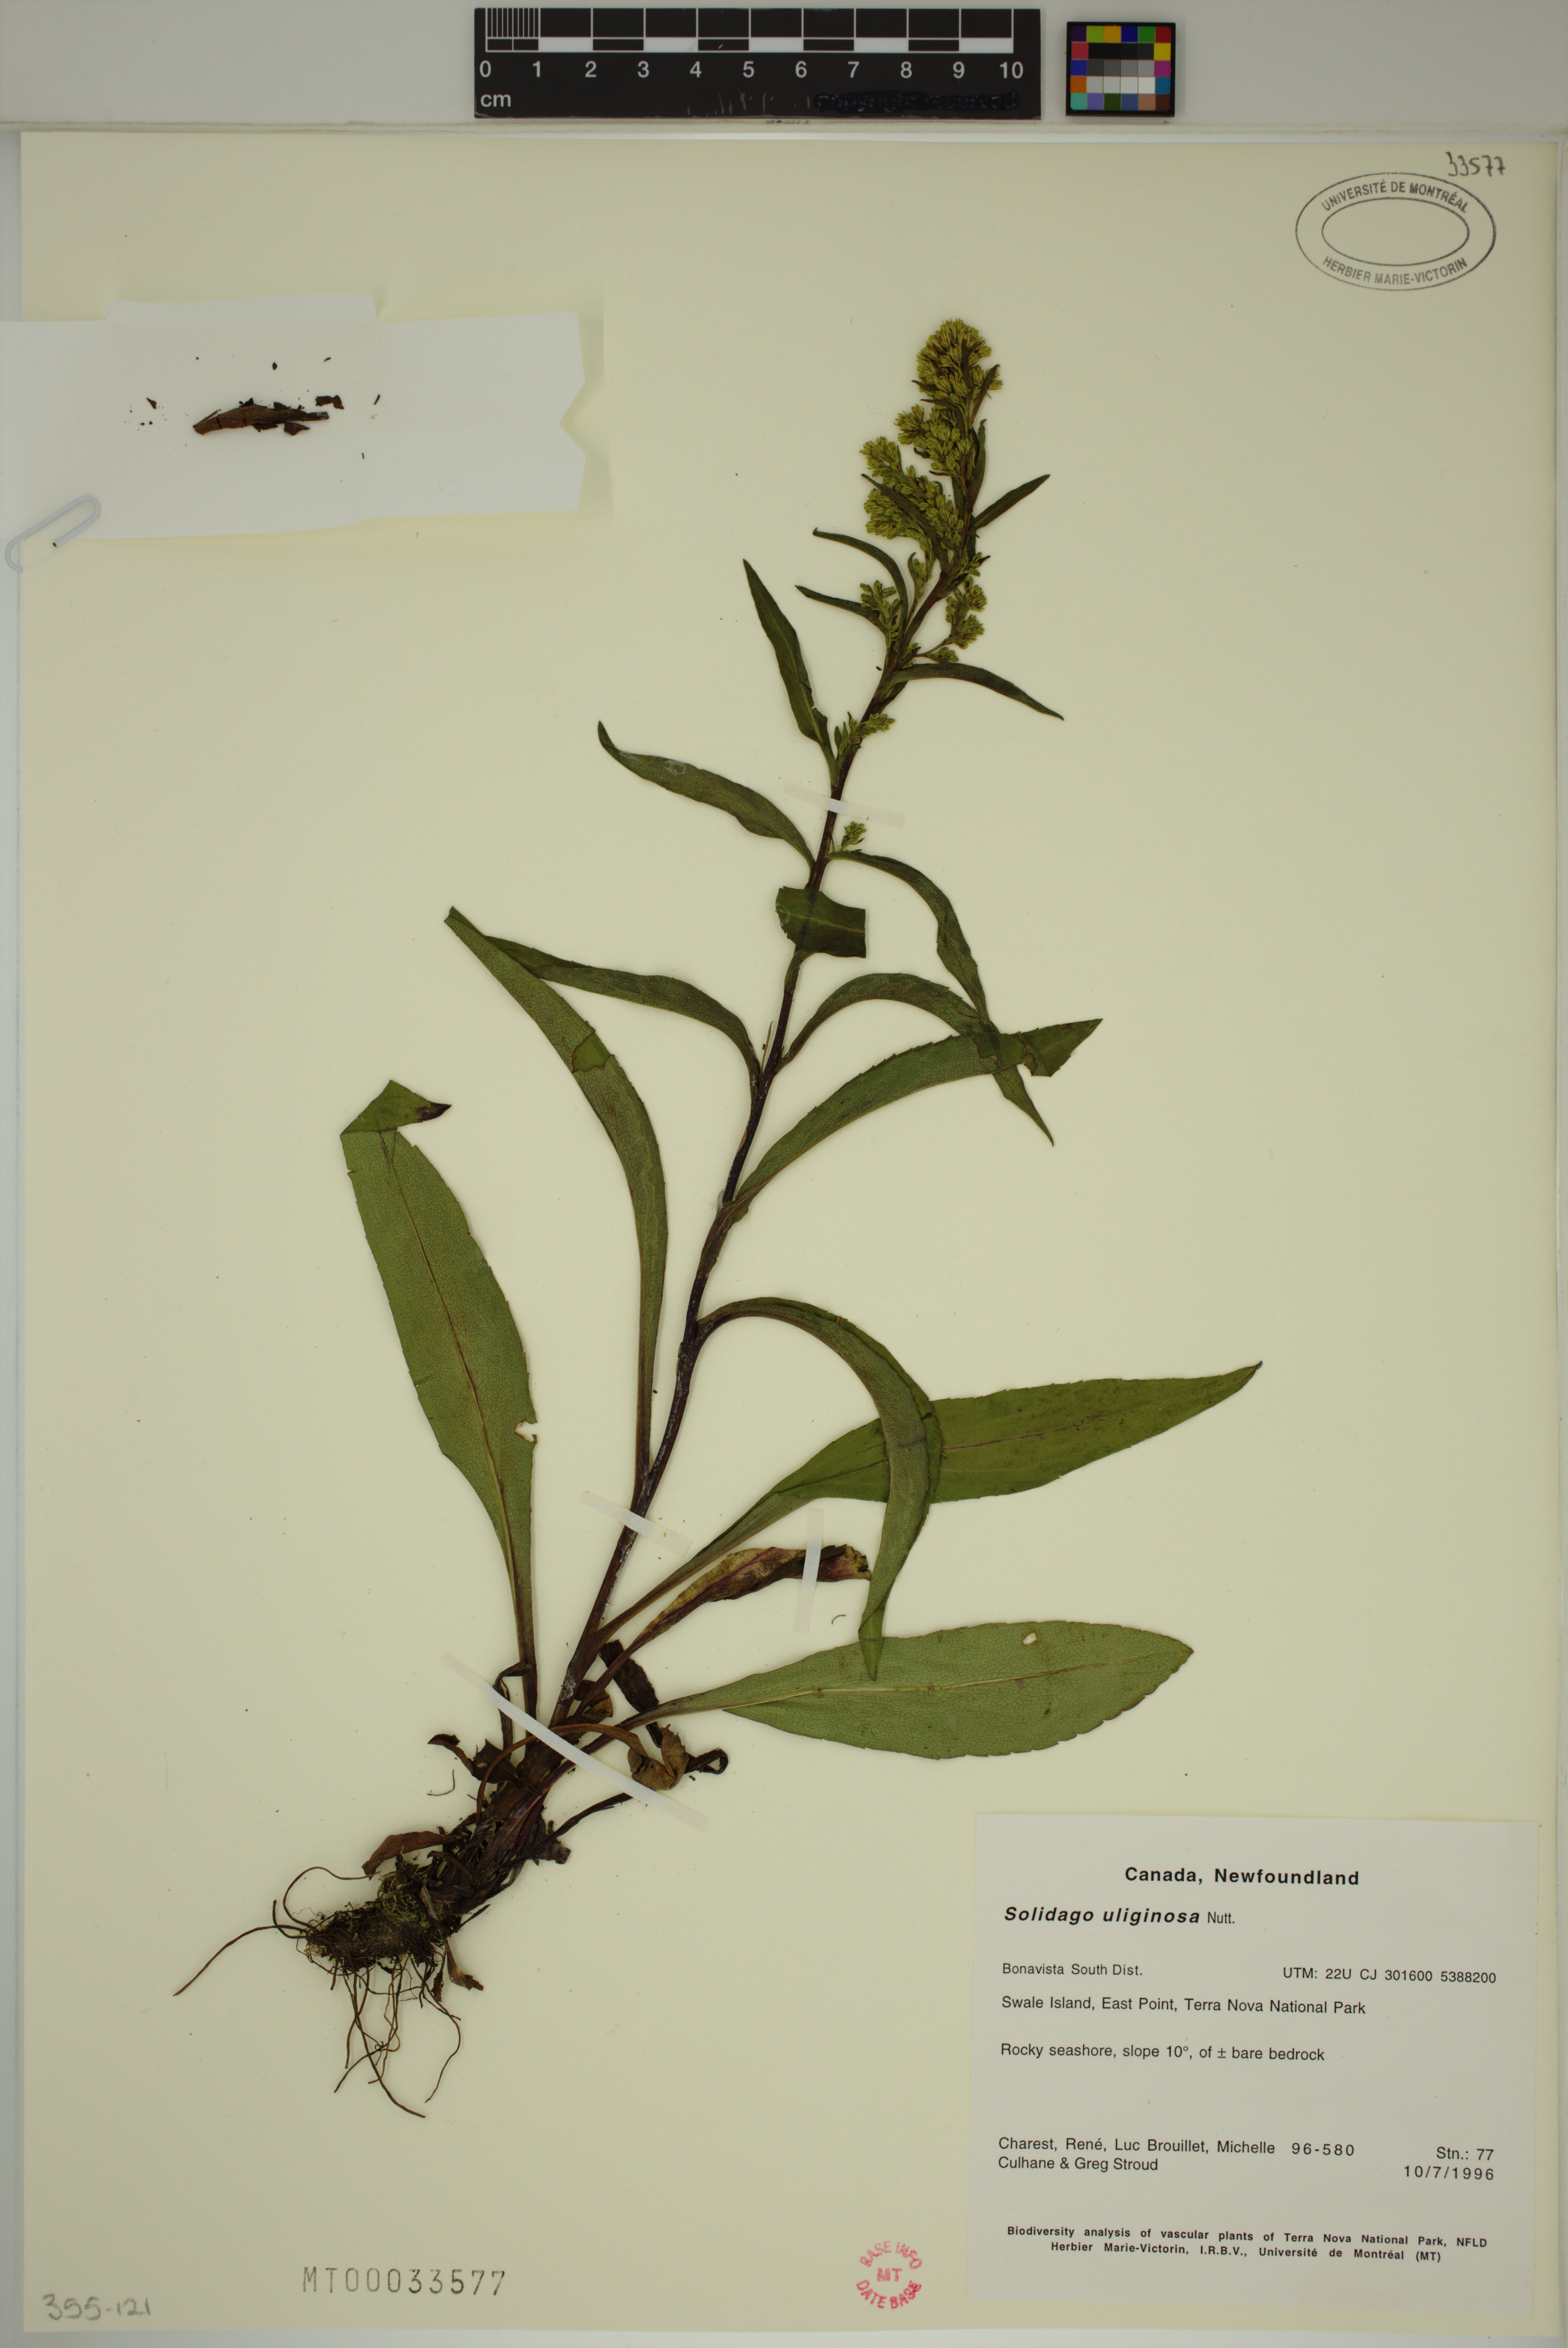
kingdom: Plantae
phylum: Tracheophyta
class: Magnoliopsida
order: Asterales
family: Asteraceae
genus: Solidago
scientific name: Solidago uliginosa
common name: Bog goldenrod
